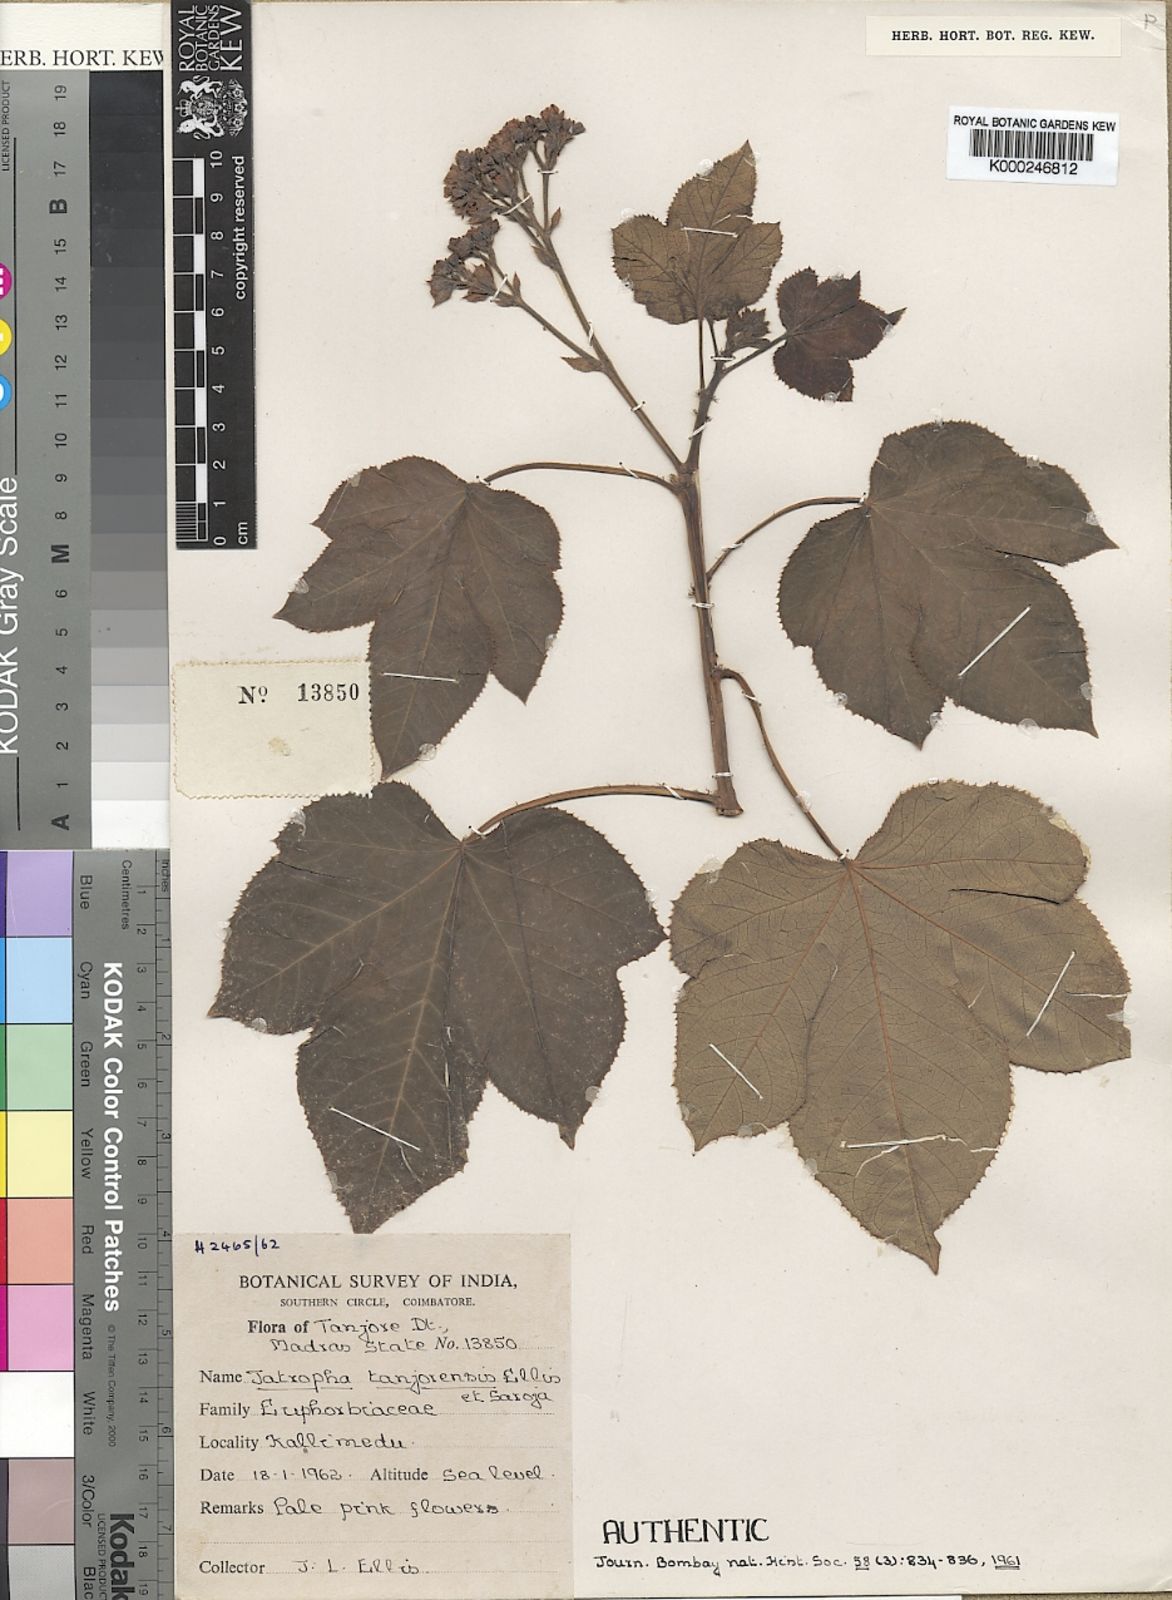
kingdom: Plantae
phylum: Tracheophyta
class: Magnoliopsida
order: Malpighiales
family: Euphorbiaceae
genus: Jatropha
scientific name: Jatropha tanjorensis
